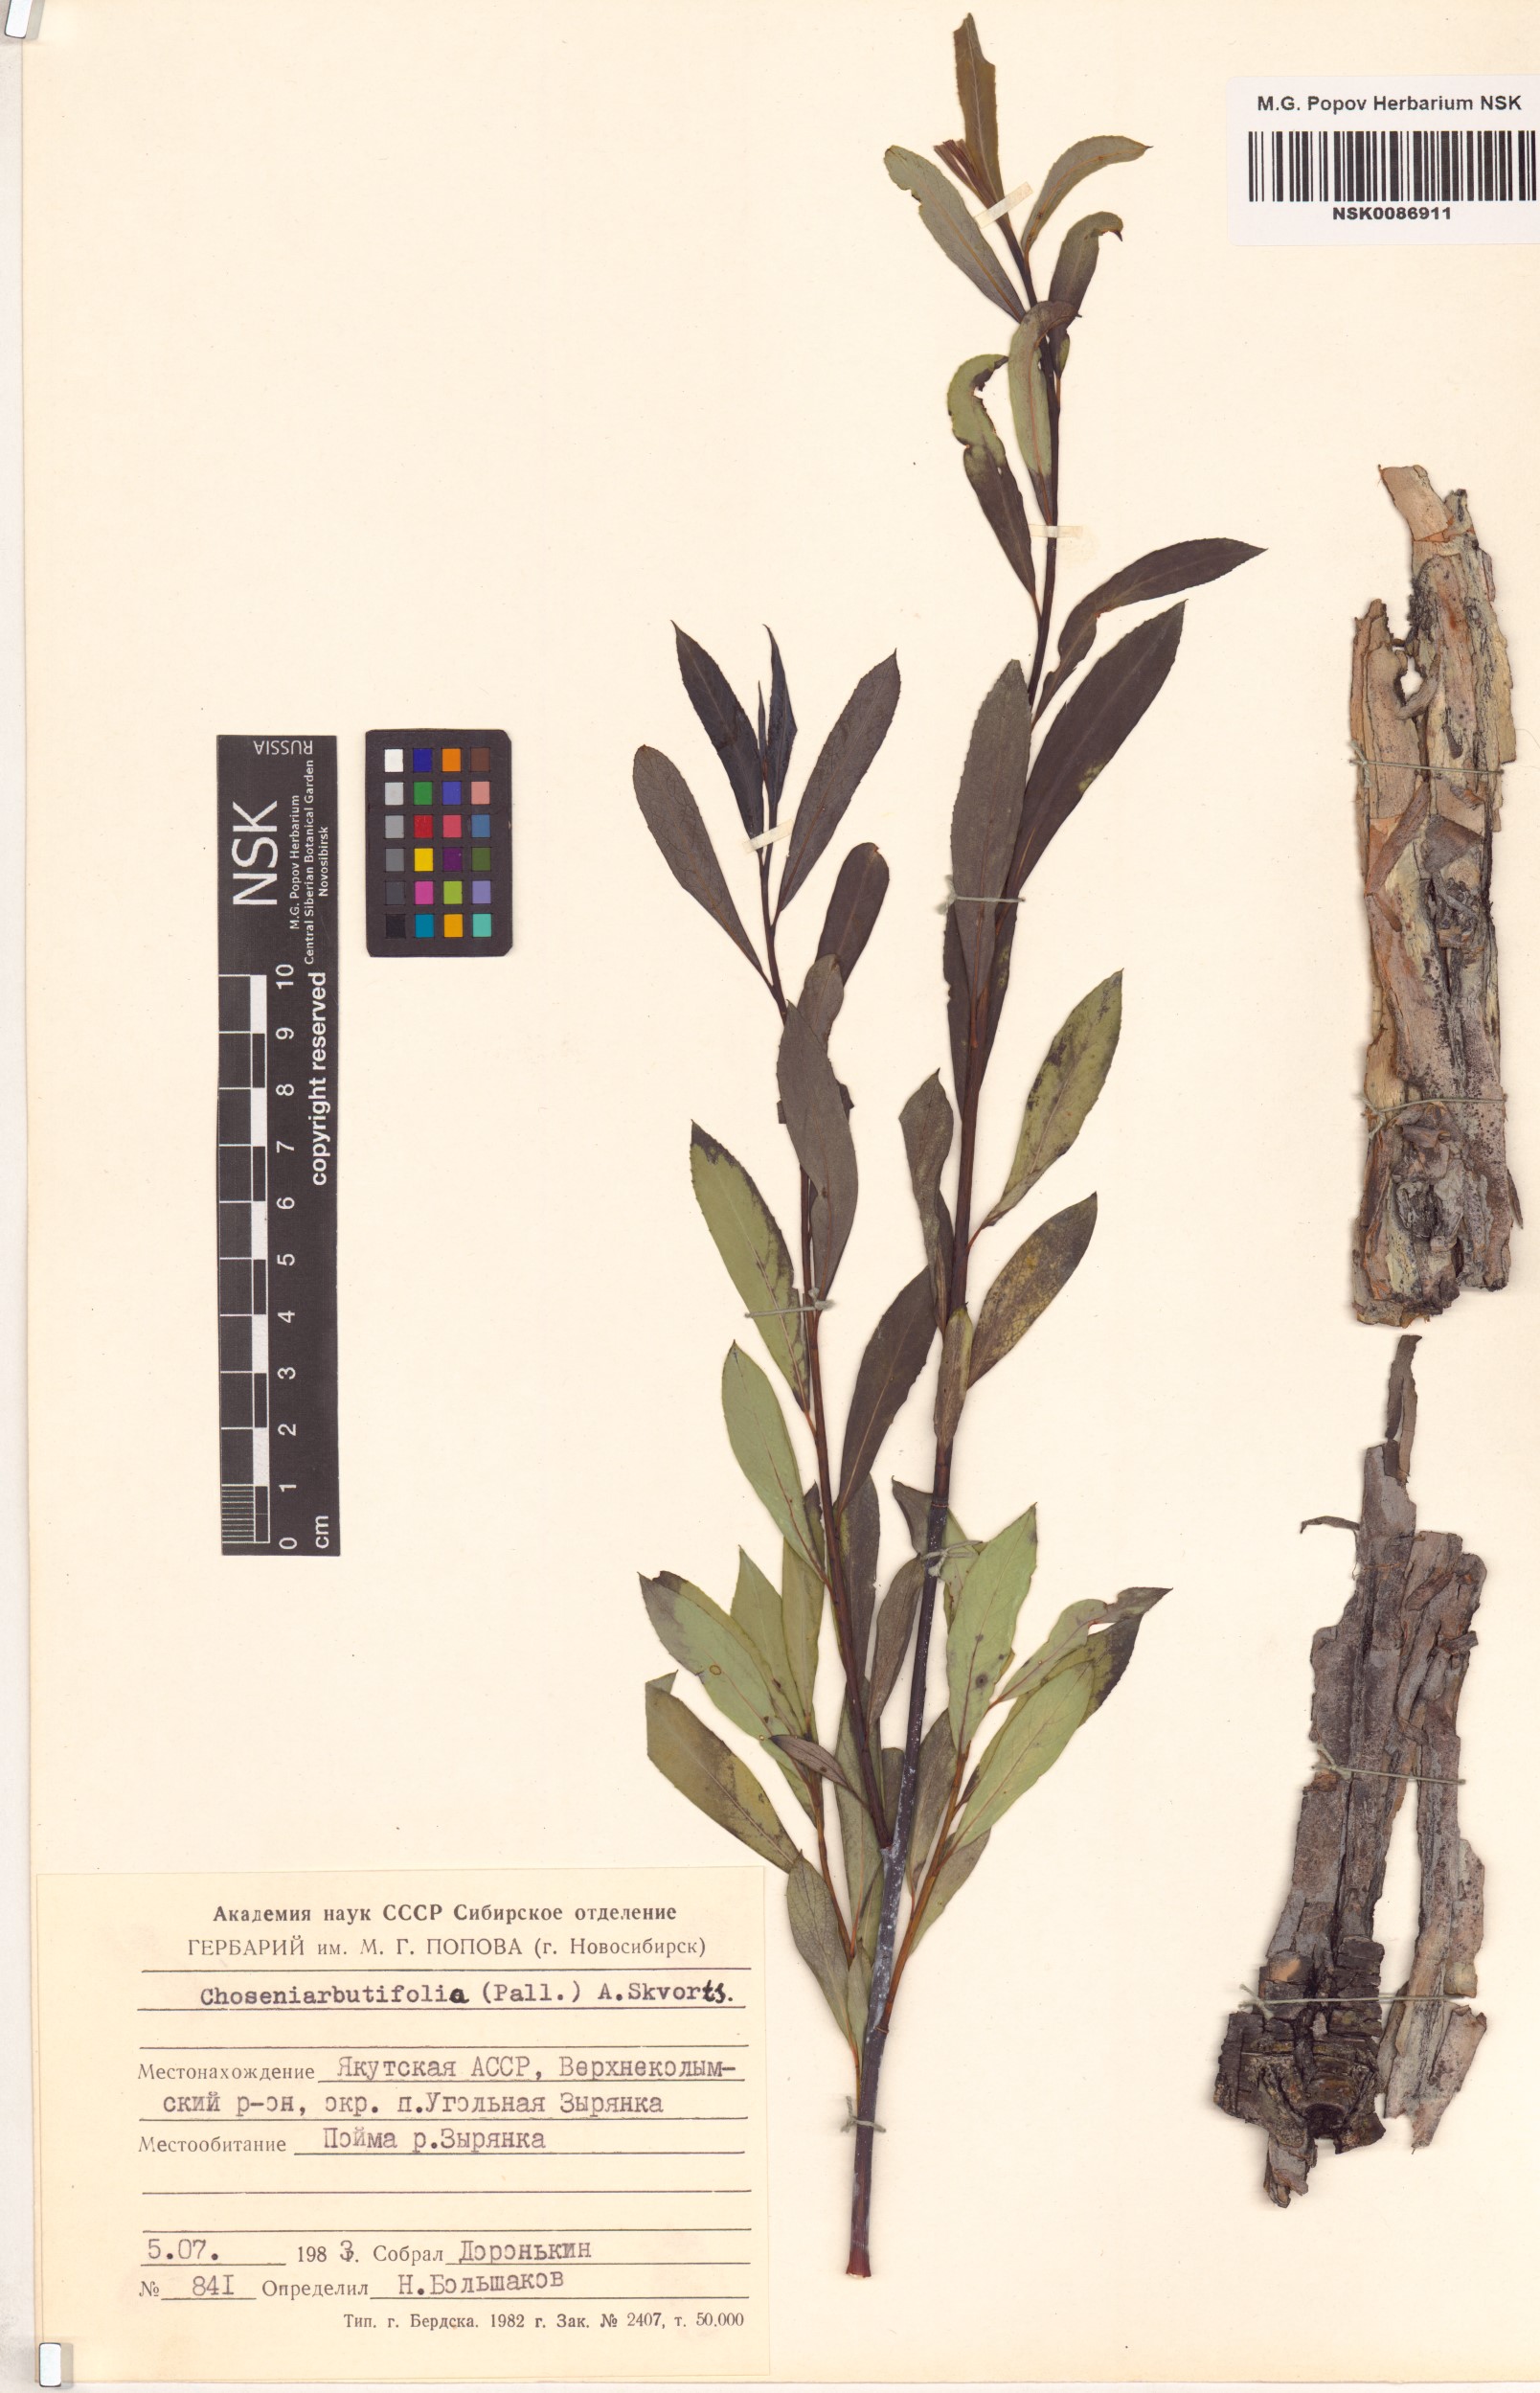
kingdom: Plantae
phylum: Tracheophyta
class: Magnoliopsida
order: Malpighiales
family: Salicaceae
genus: Chosenia
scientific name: Chosenia arbutifolia
